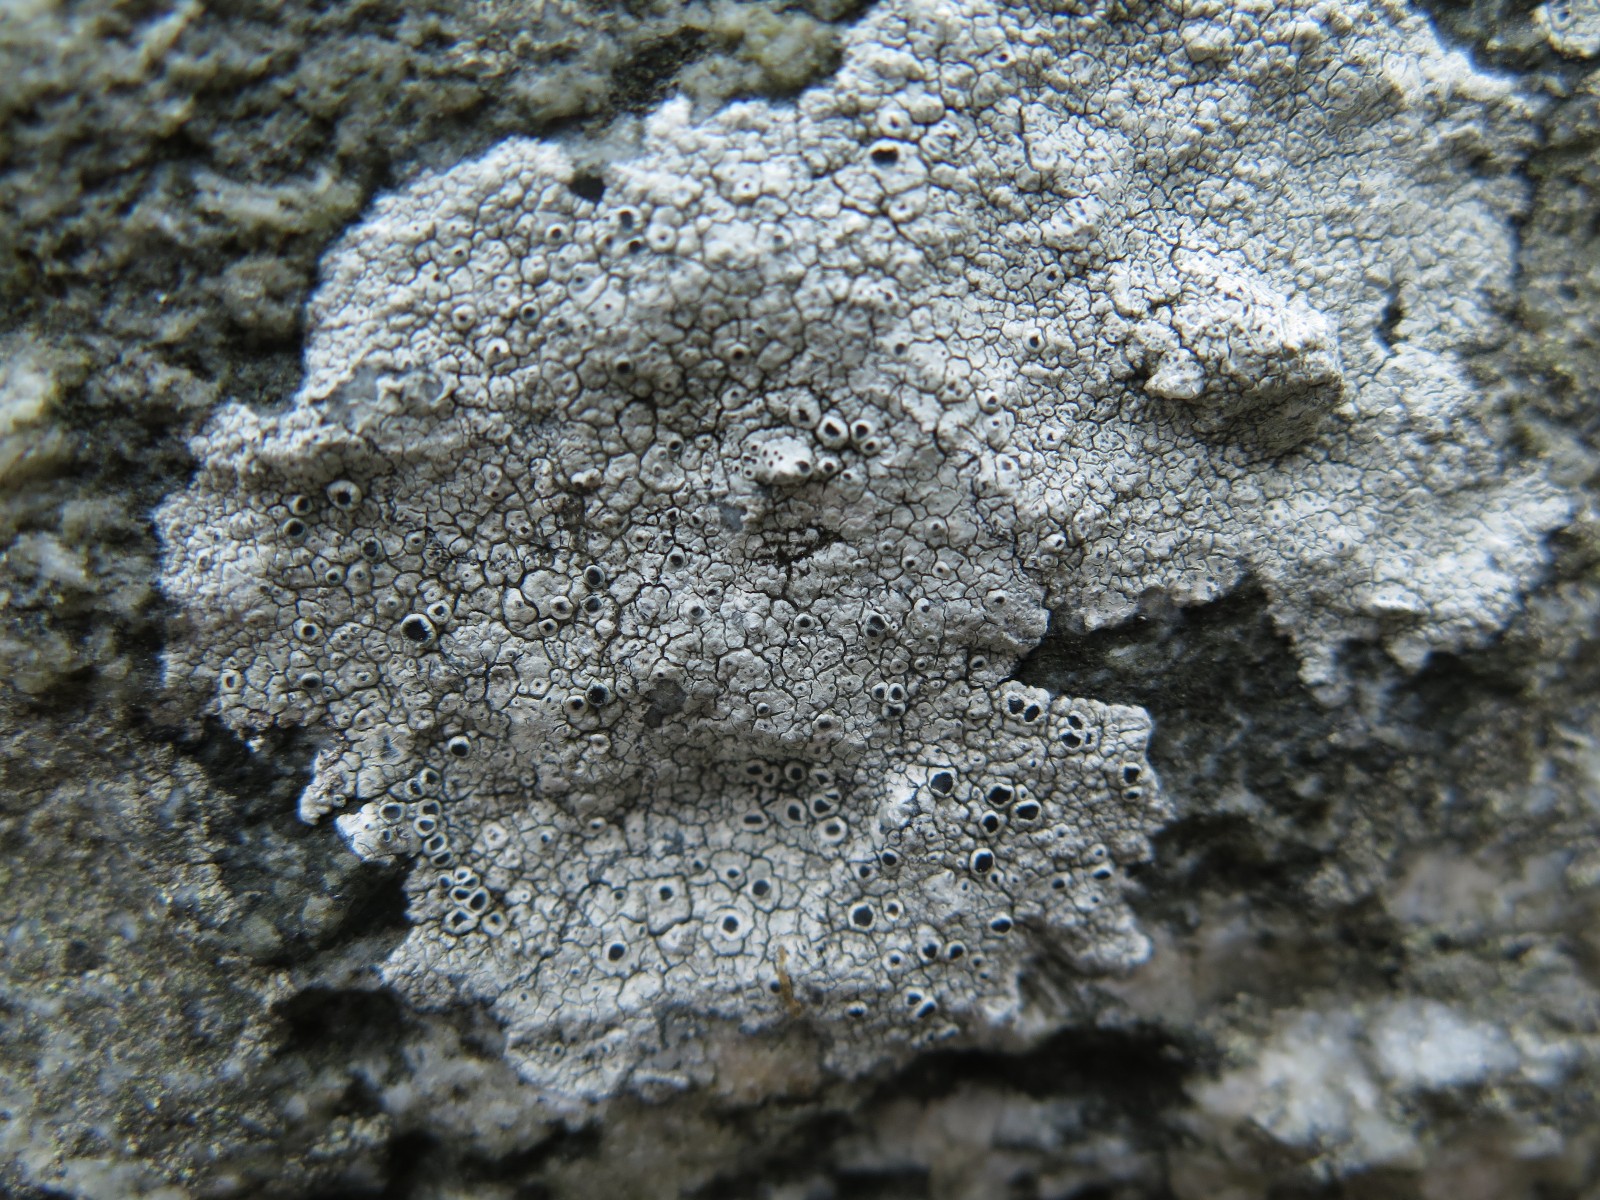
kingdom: Fungi
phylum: Ascomycota
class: Lecanoromycetes
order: Lecanorales
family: Tephromelataceae
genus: Tephromela
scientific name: Tephromela atra
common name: sortfrugtet kantskivelav
